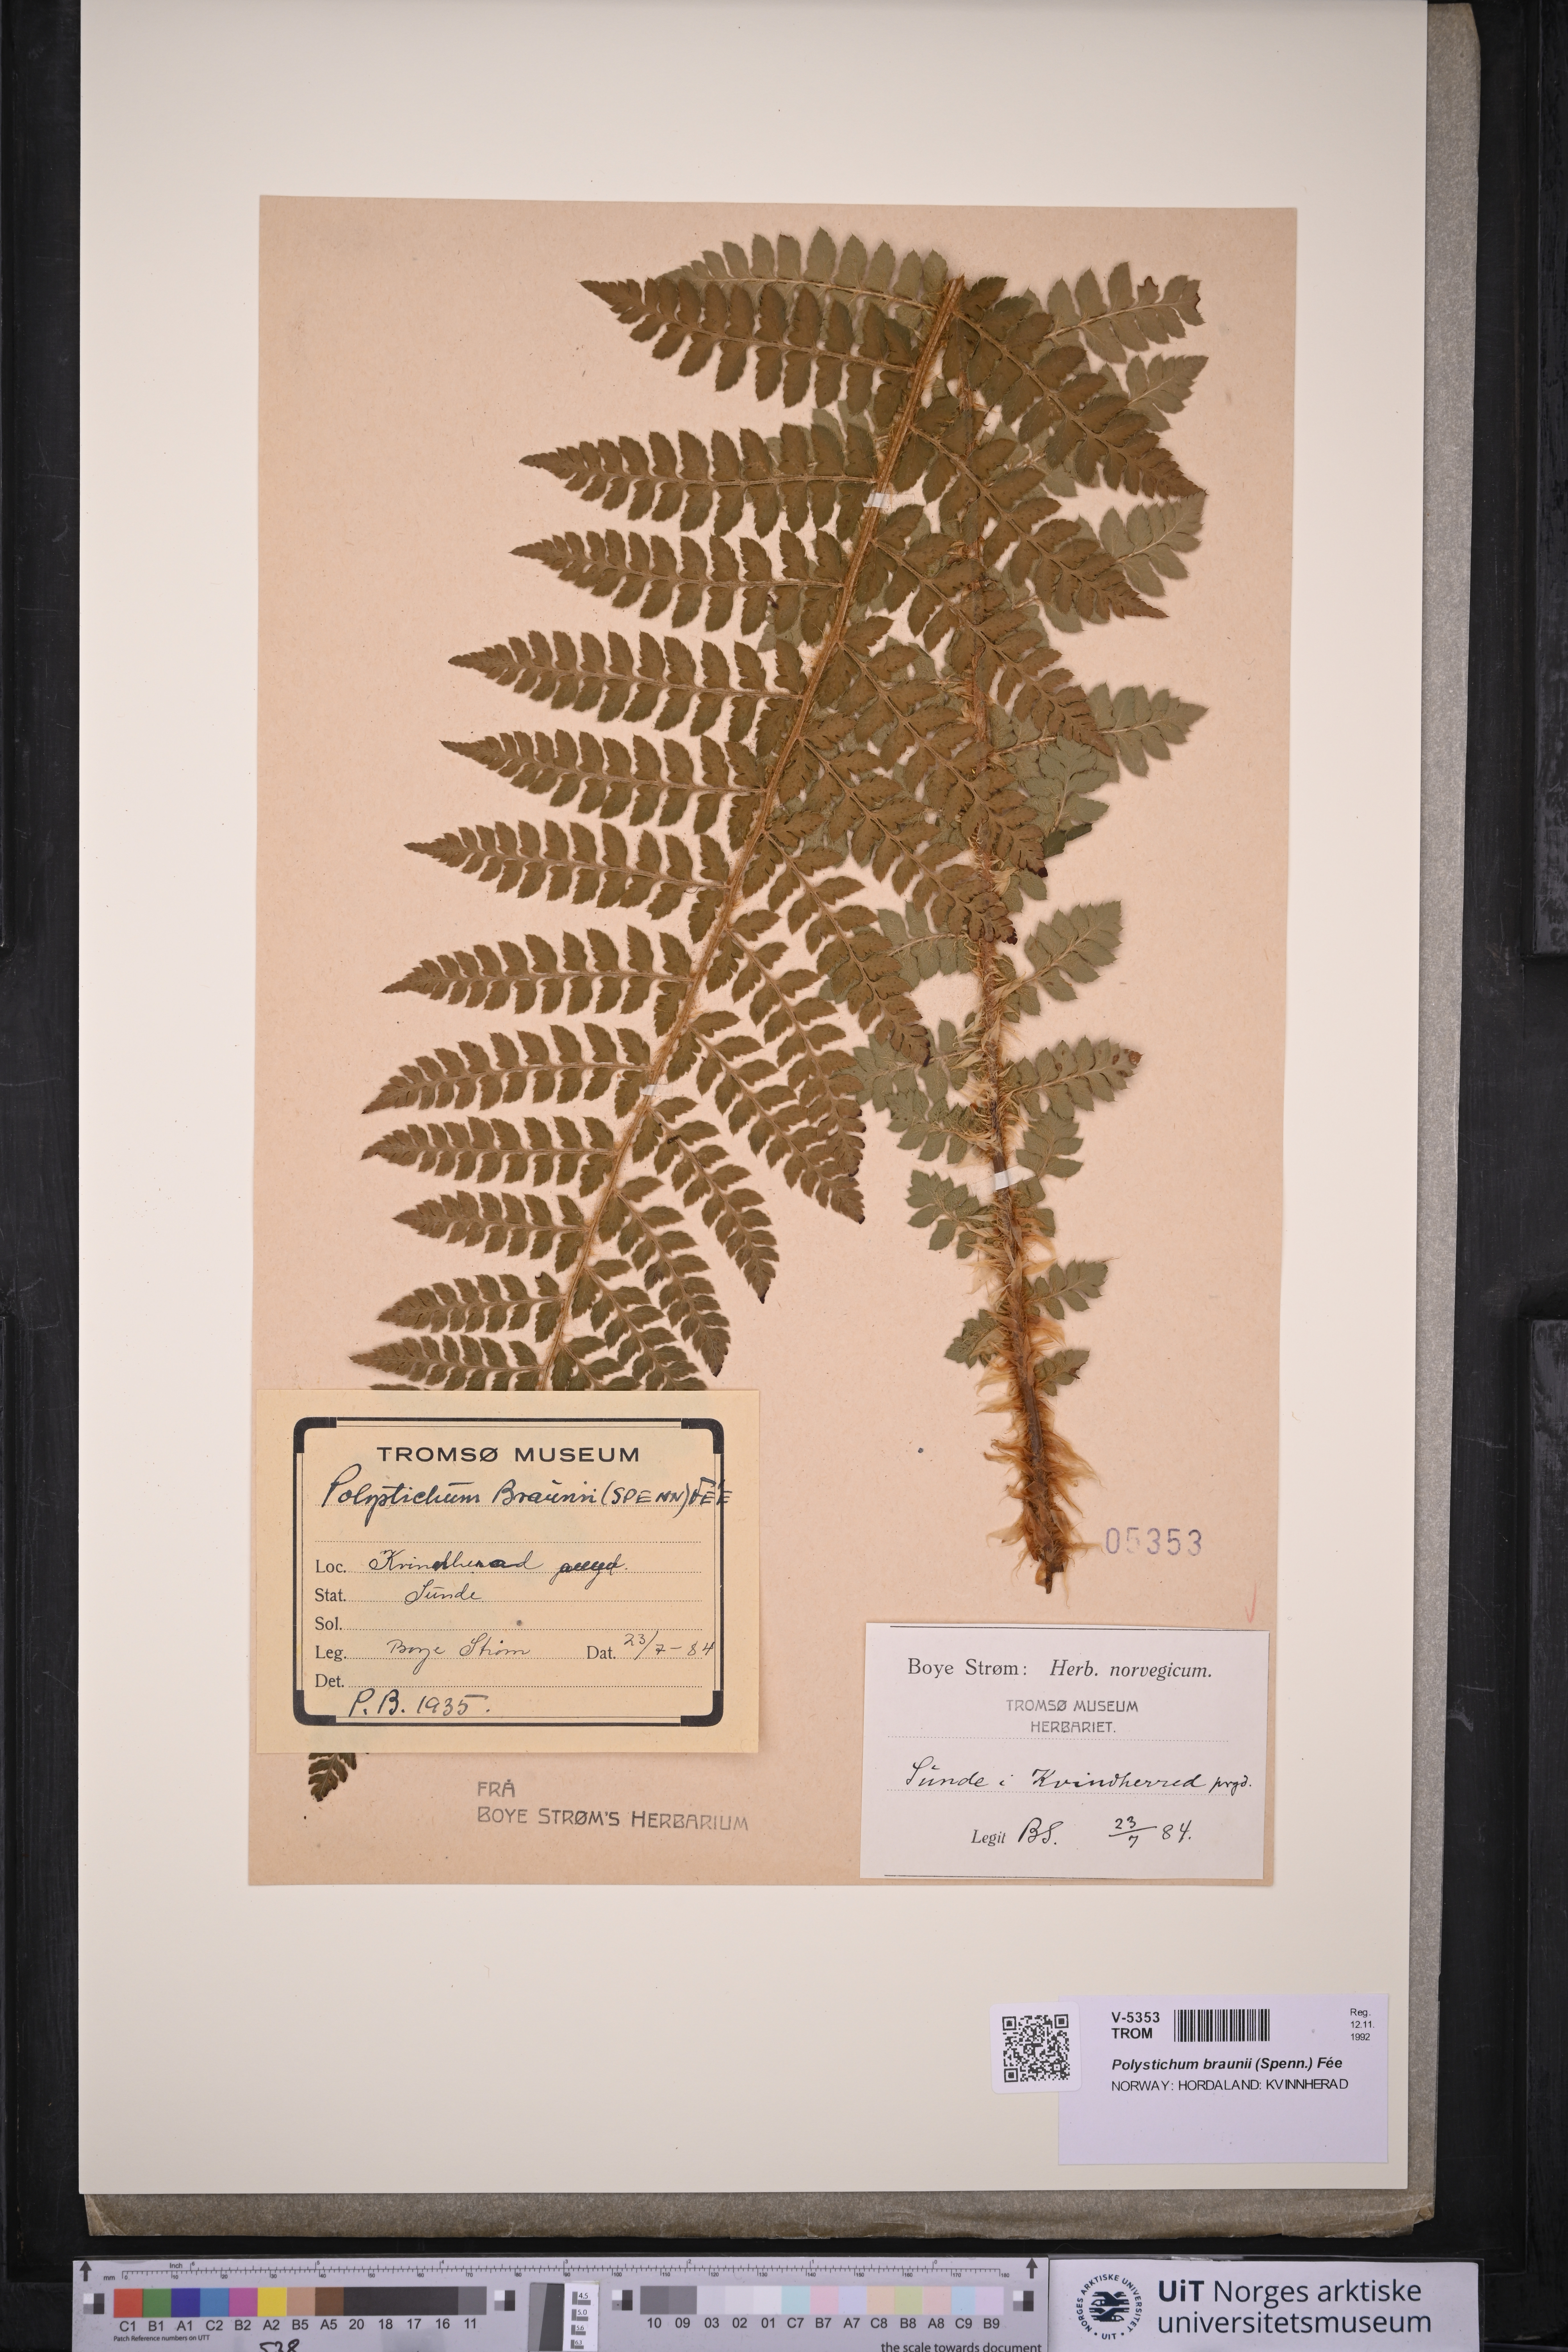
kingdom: Plantae
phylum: Tracheophyta
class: Polypodiopsida
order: Polypodiales
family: Dryopteridaceae
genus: Polystichum
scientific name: Polystichum braunii
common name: Braun's holly fern
